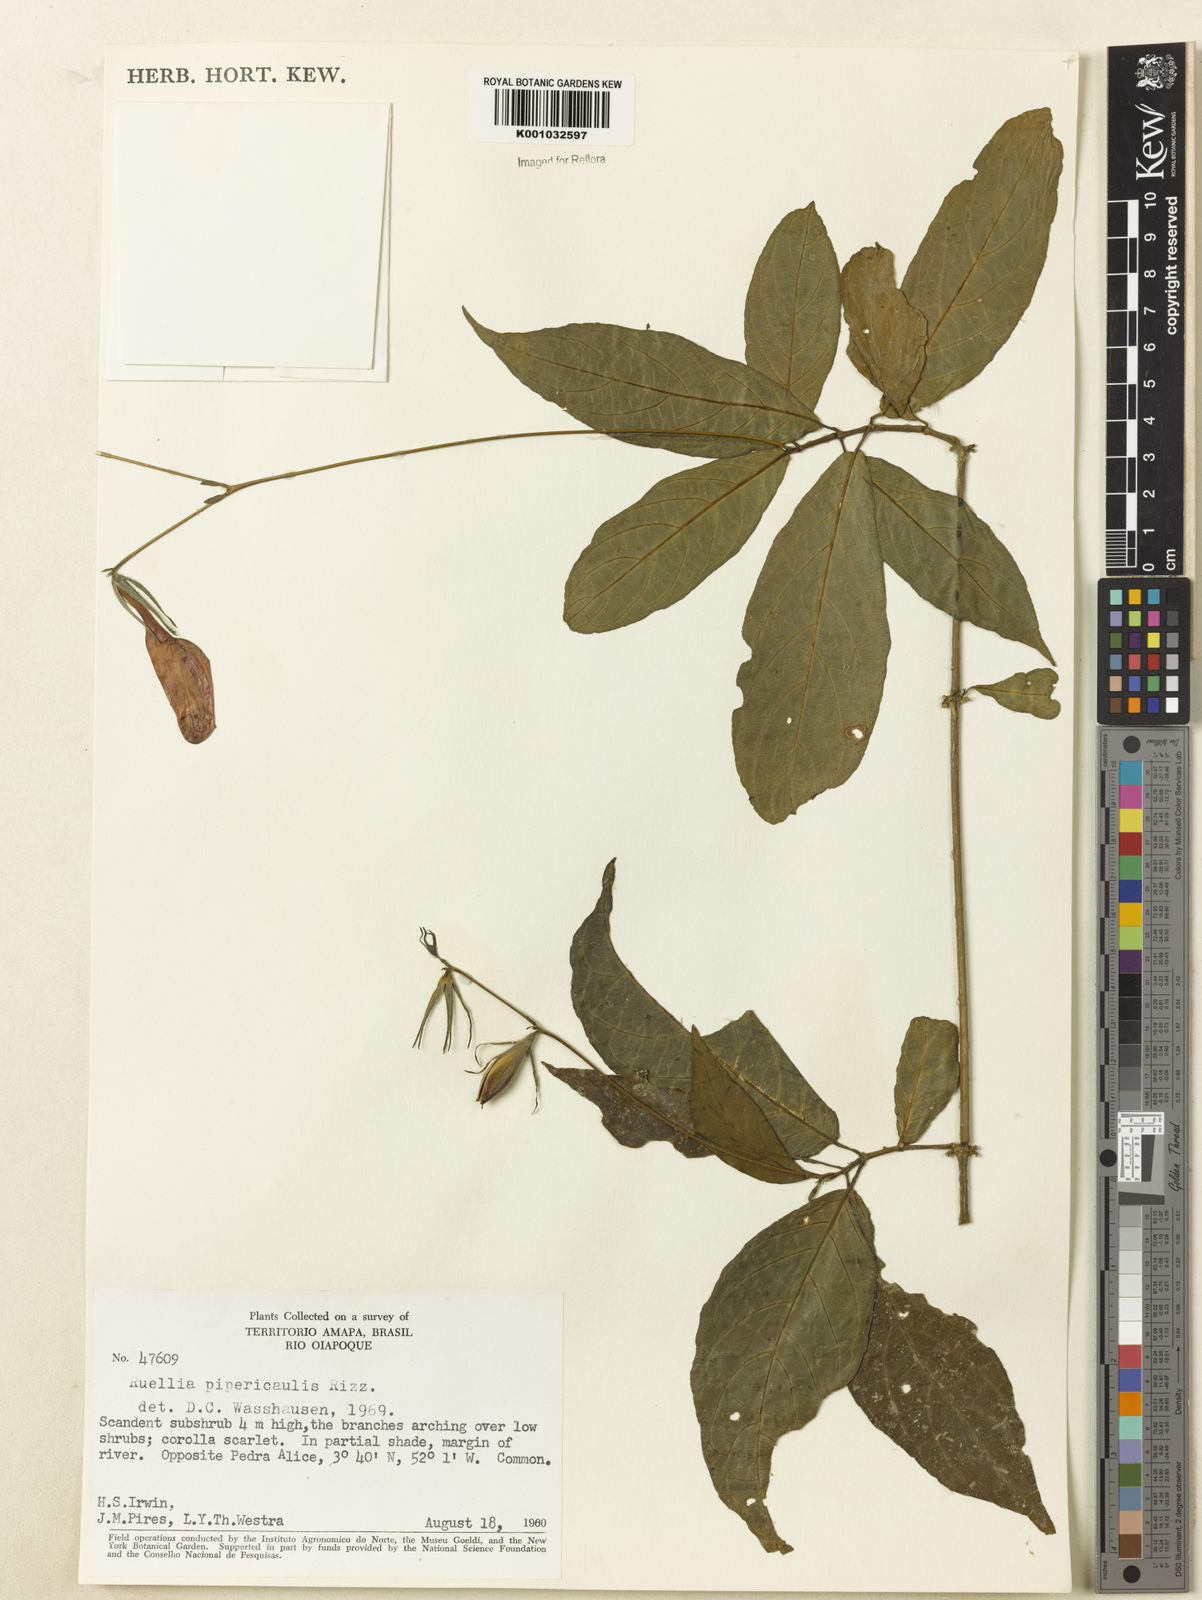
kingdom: Plantae
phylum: Tracheophyta
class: Magnoliopsida
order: Lamiales
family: Acanthaceae
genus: Ruellia
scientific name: Ruellia inflata
